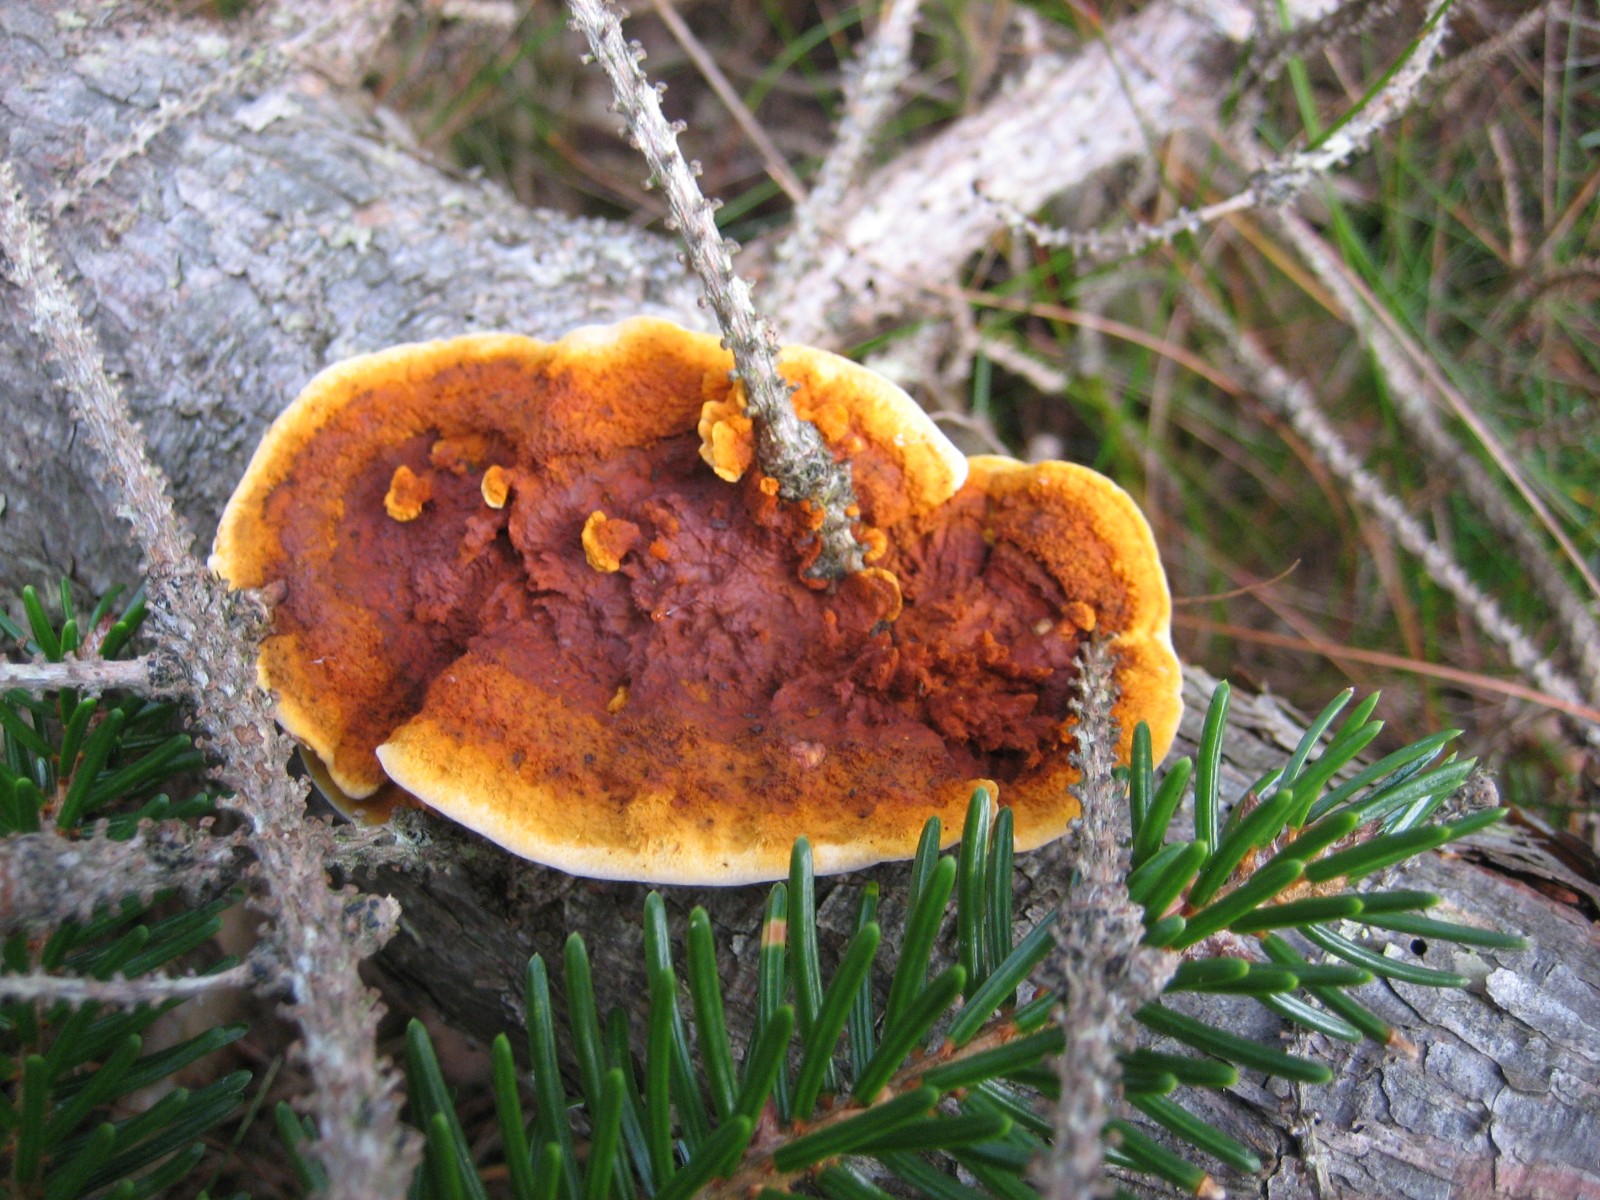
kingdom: Fungi
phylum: Basidiomycota
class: Agaricomycetes
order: Gloeophyllales
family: Gloeophyllaceae
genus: Gloeophyllum
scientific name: Gloeophyllum sepiarium
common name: fyrre-korkhat
